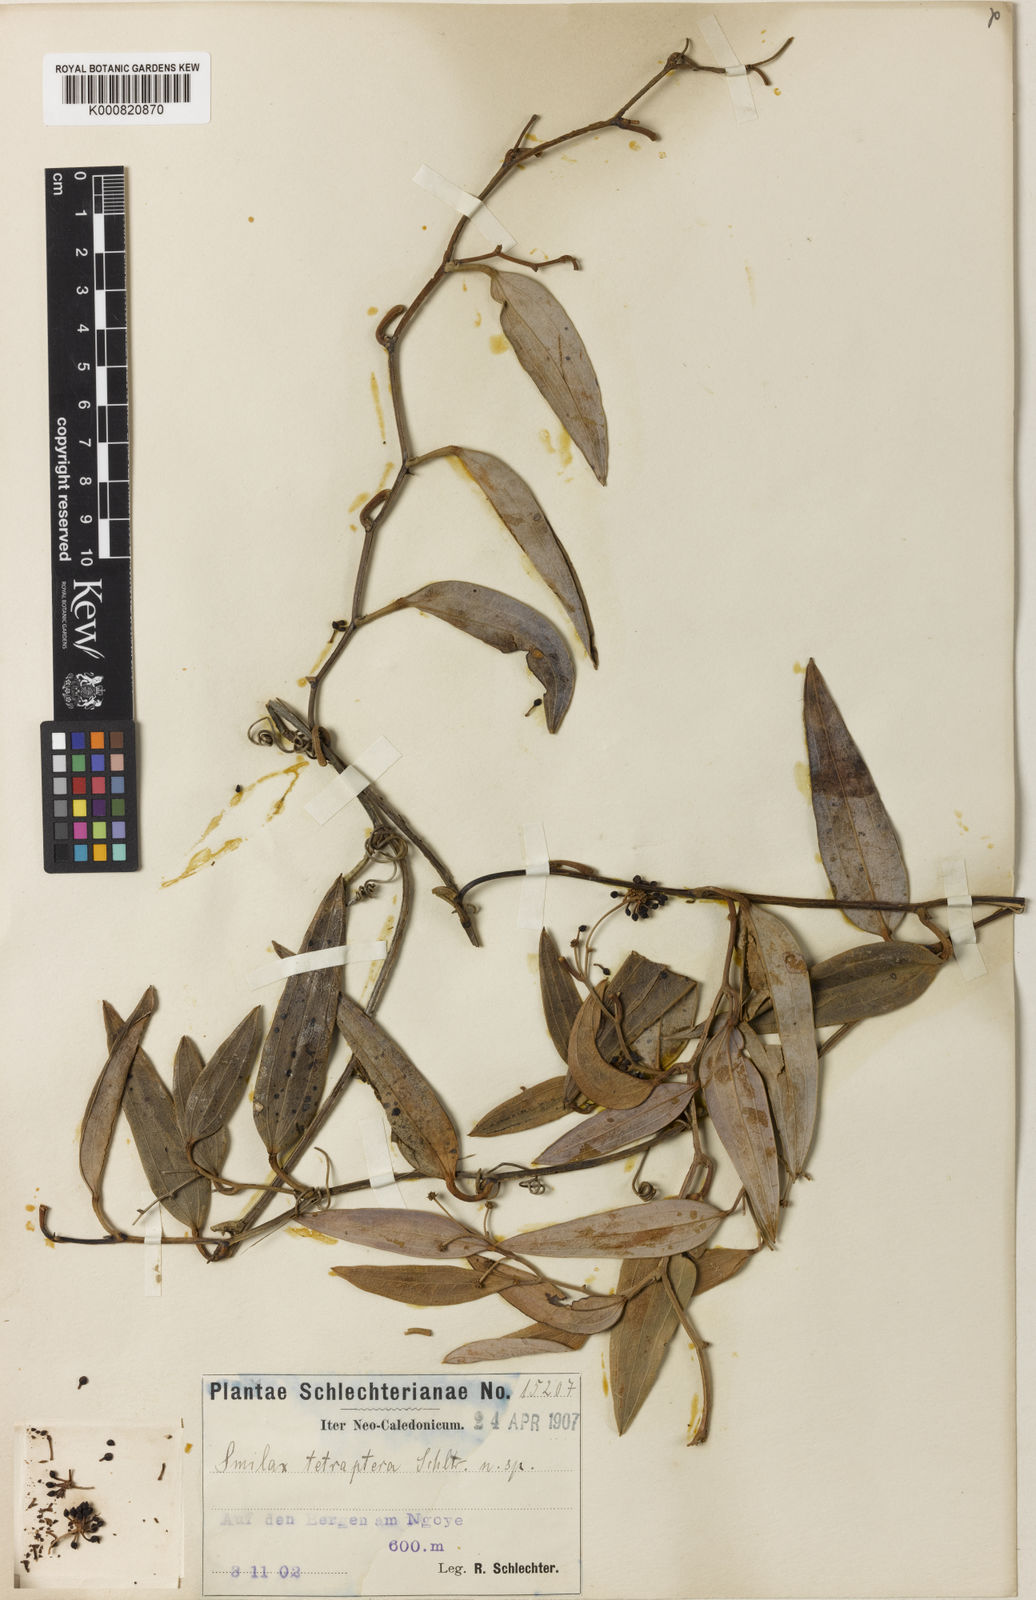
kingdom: Plantae
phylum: Tracheophyta
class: Liliopsida
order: Liliales
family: Smilacaceae
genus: Smilax
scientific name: Smilax tetraptera
